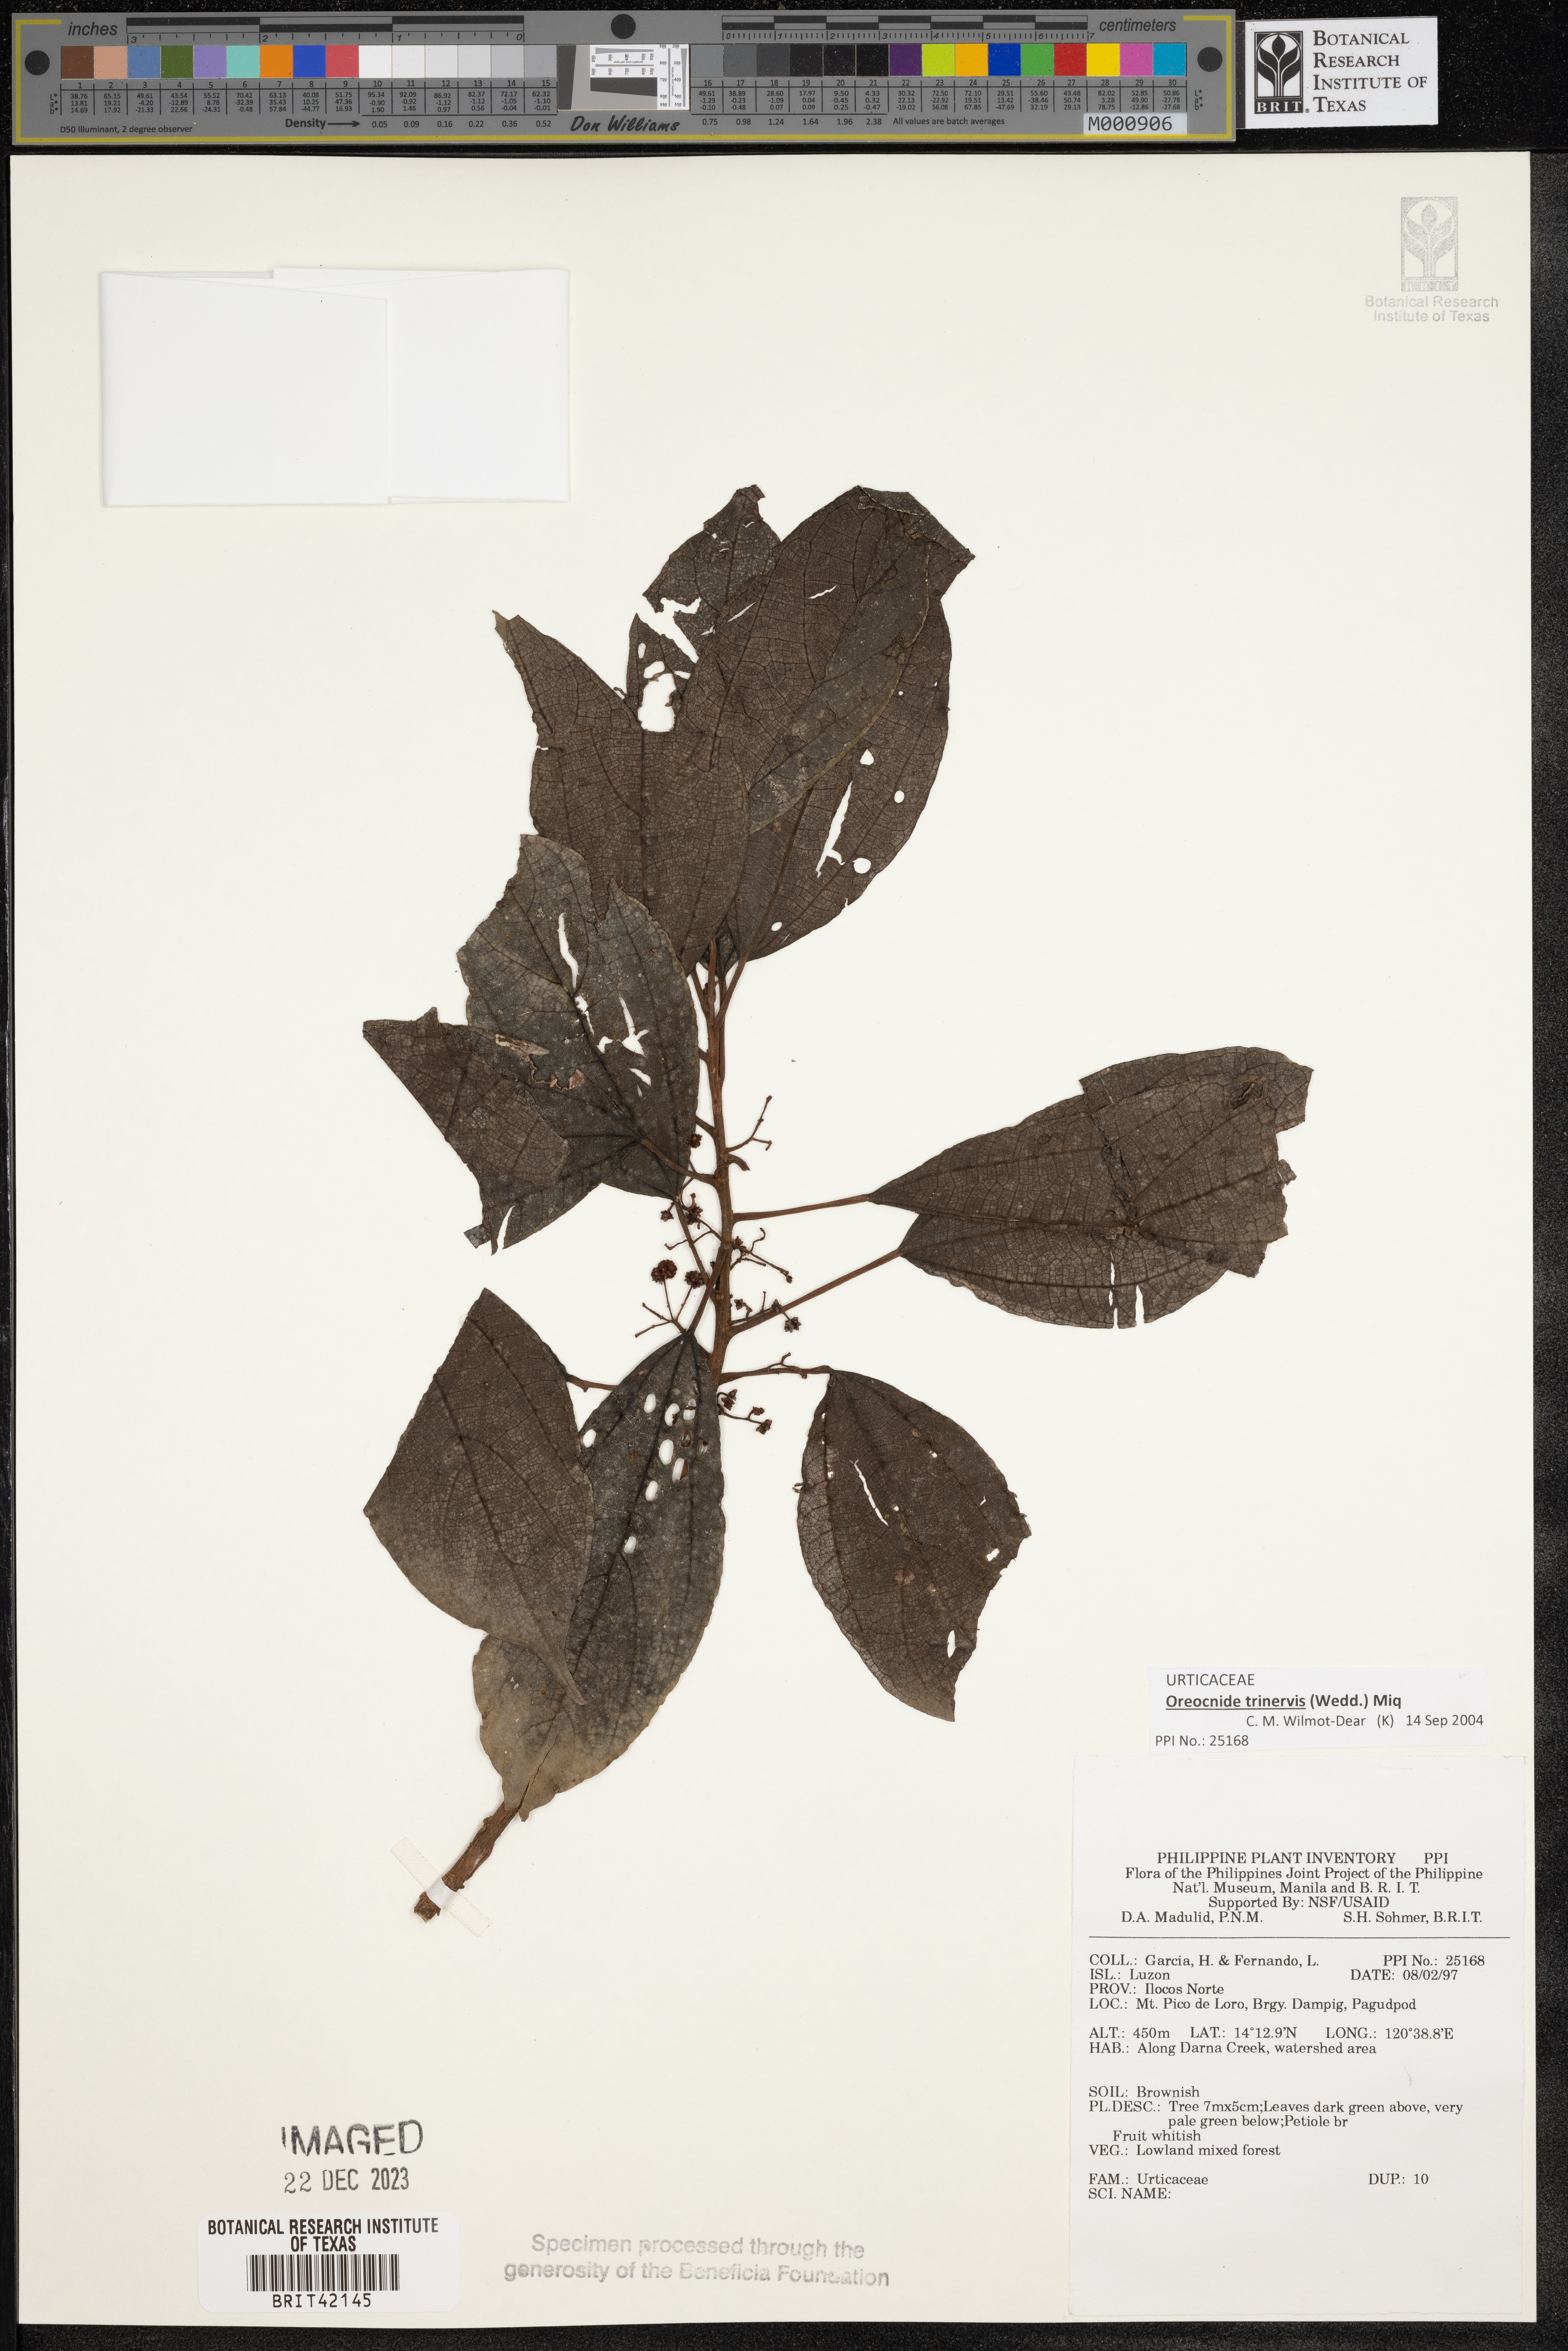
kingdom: Plantae
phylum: Tracheophyta
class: Magnoliopsida
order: Rosales
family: Urticaceae
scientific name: Urticaceae
